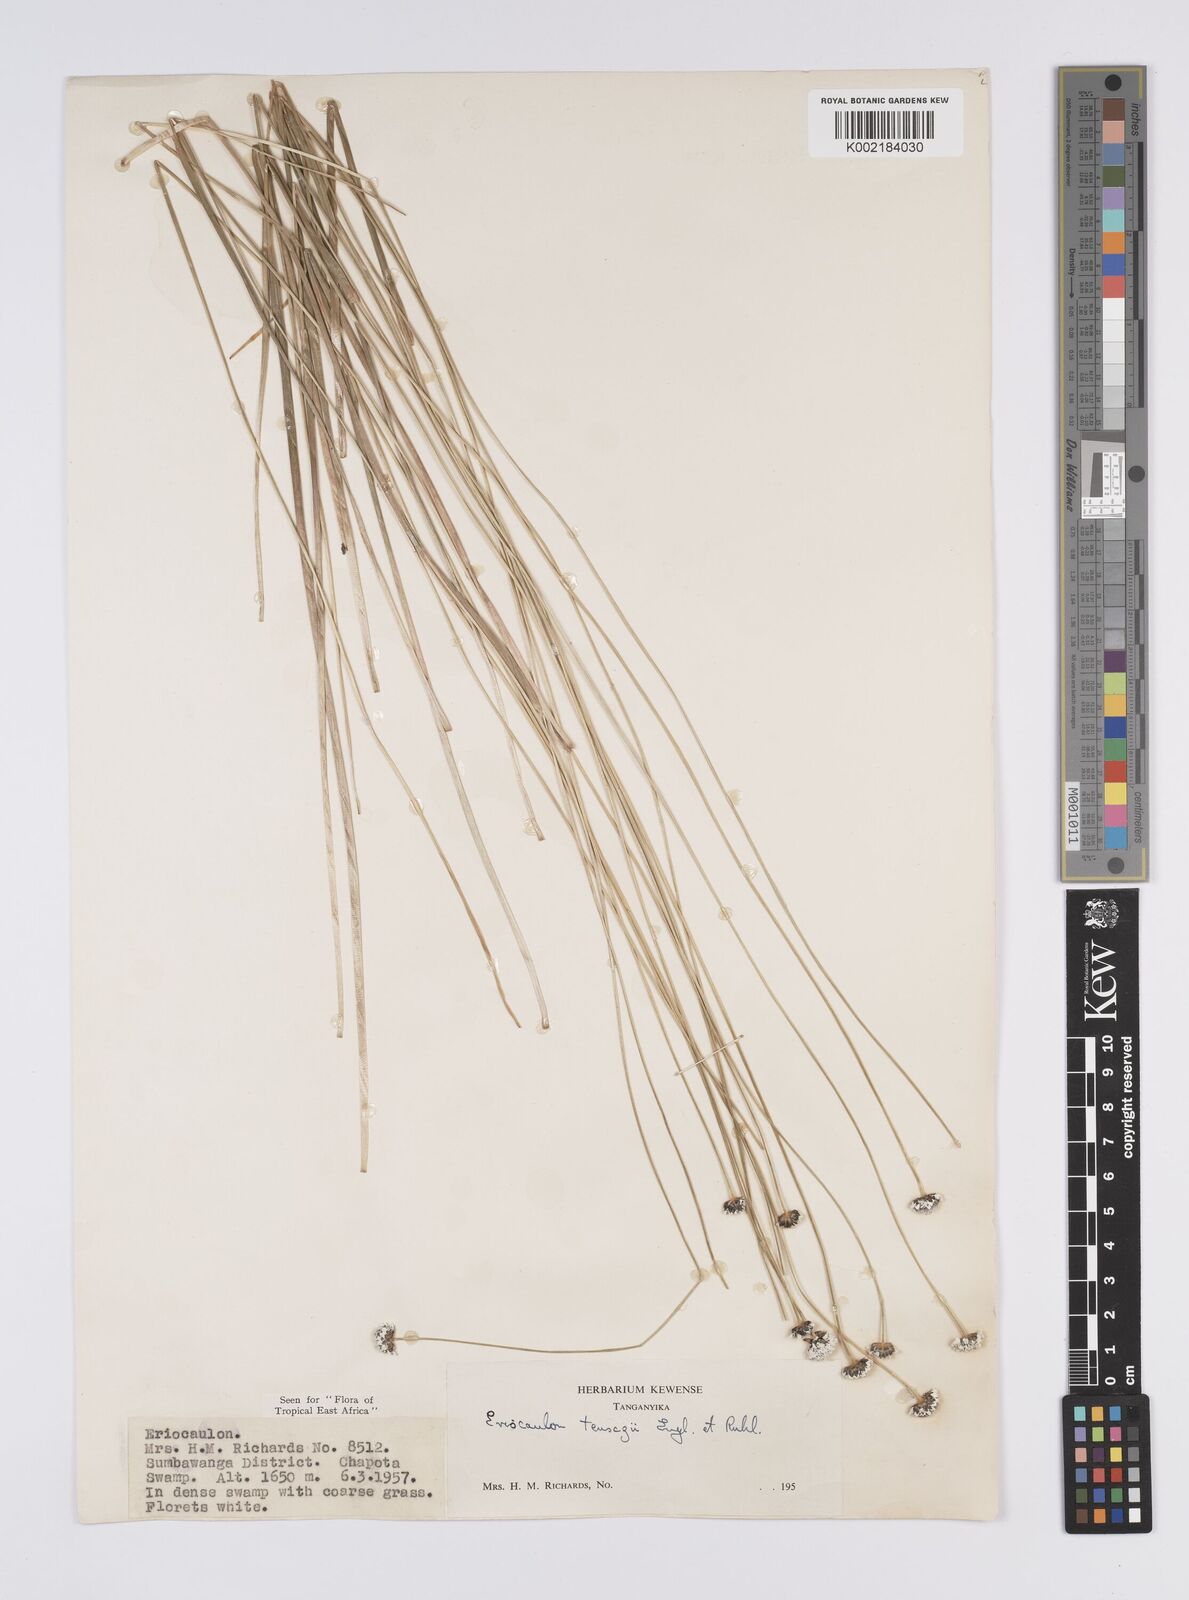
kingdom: Plantae
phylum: Tracheophyta
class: Liliopsida
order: Poales
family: Eriocaulaceae
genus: Eriocaulon
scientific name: Eriocaulon teusczii
